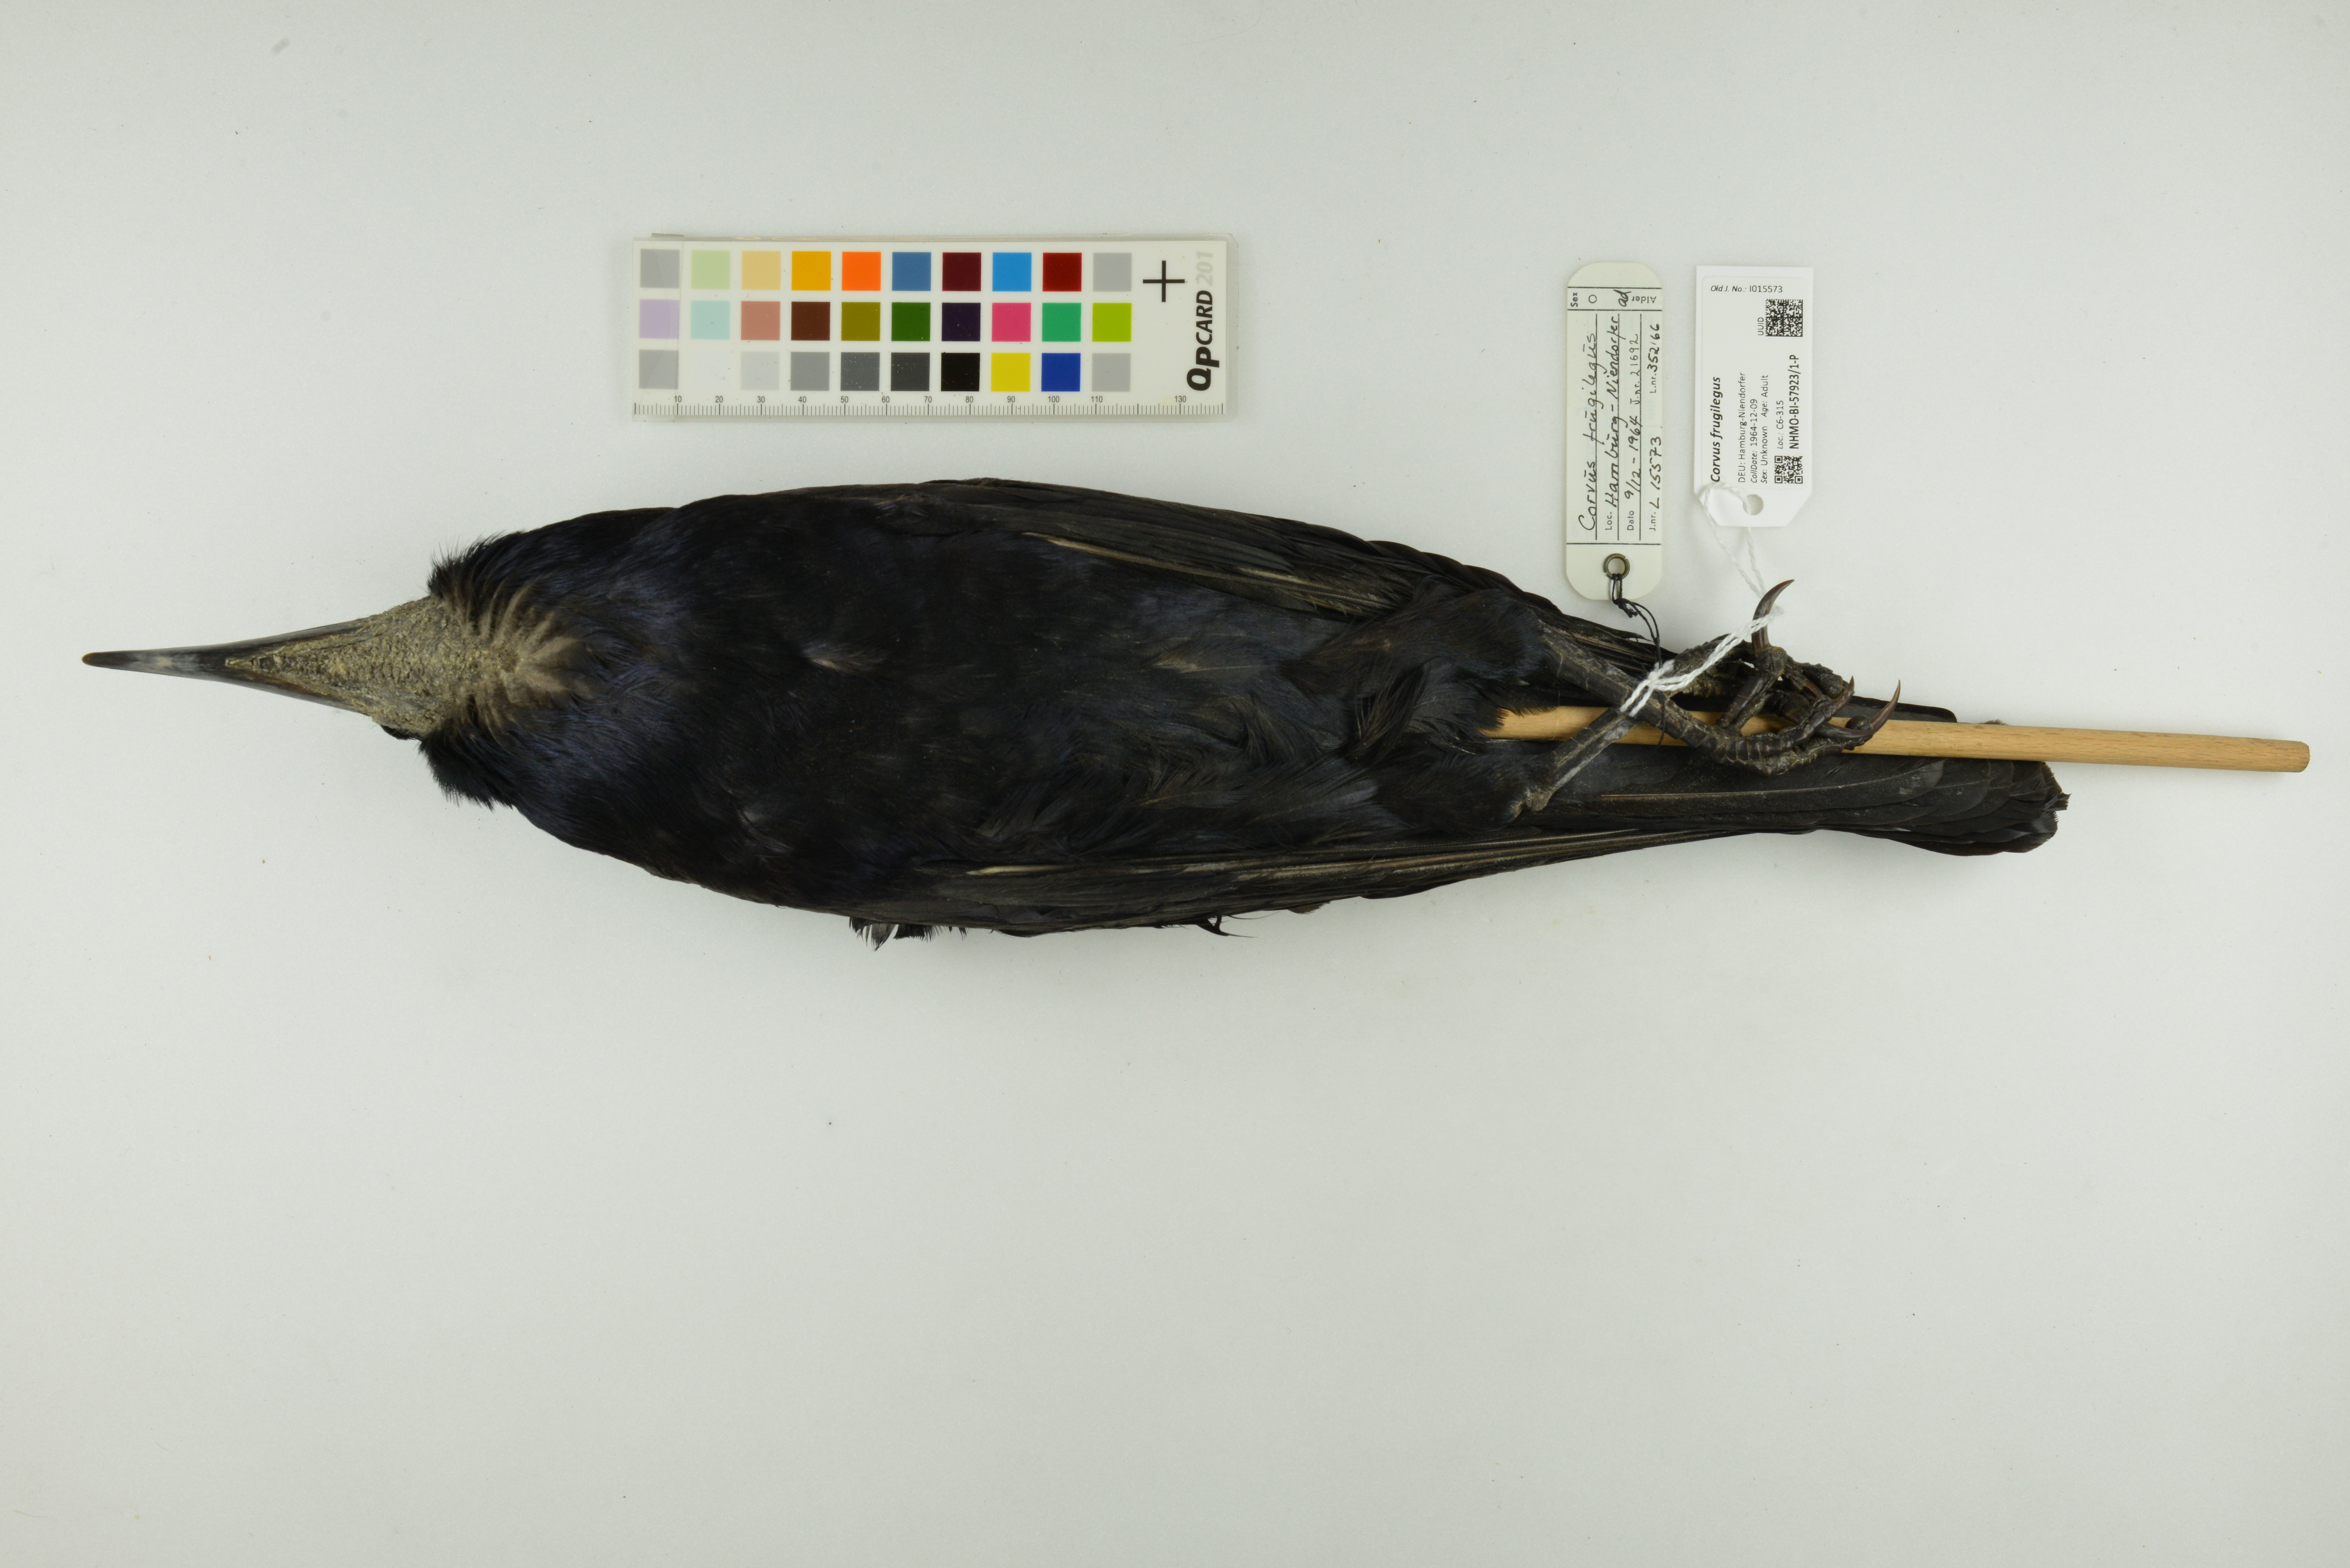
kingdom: Animalia
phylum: Chordata
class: Aves
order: Passeriformes
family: Corvidae
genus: Corvus
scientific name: Corvus frugilegus
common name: Rook
